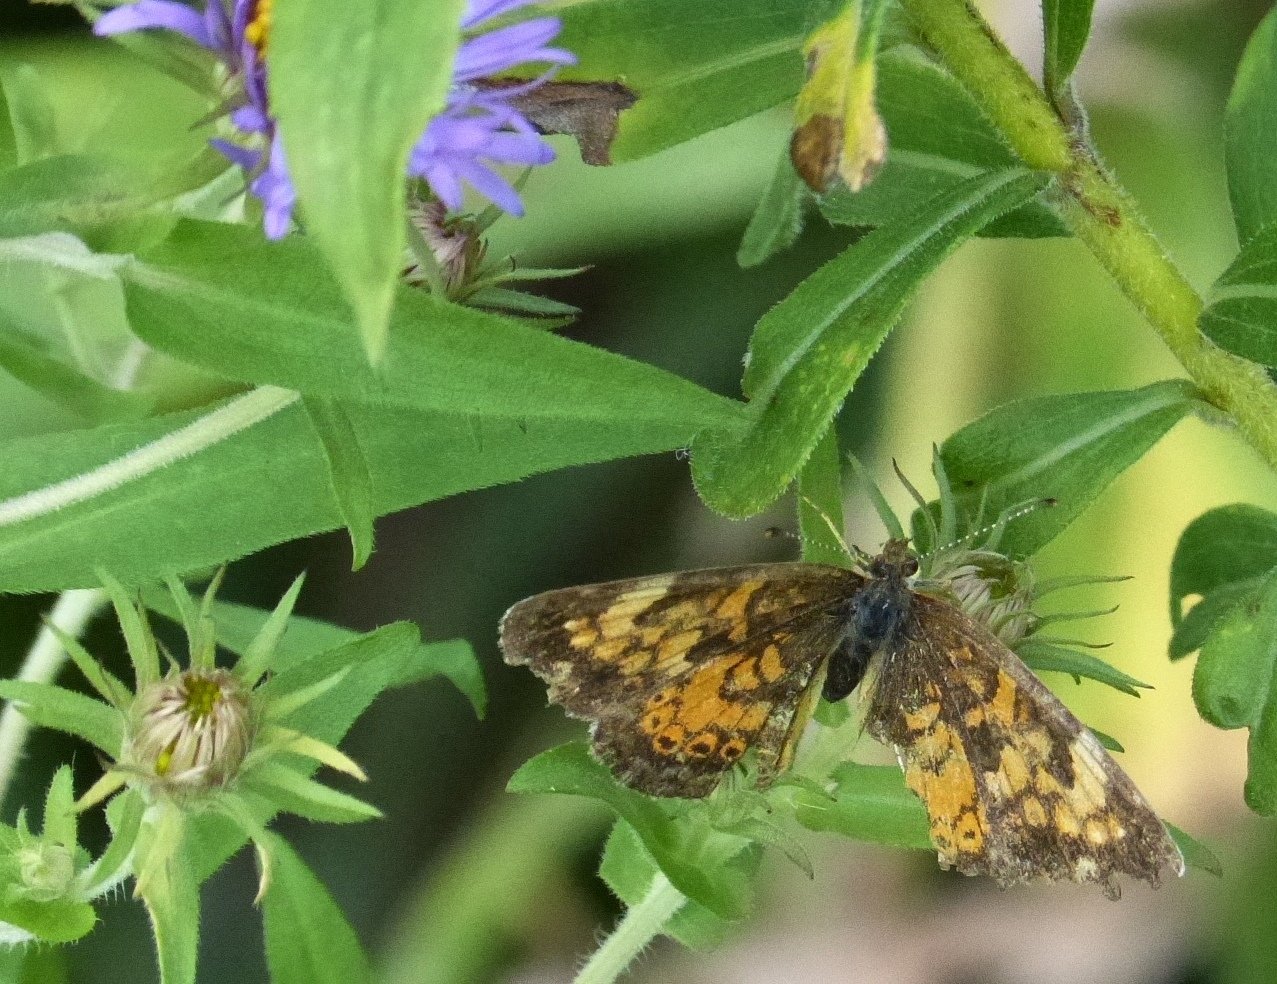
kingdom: Animalia
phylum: Arthropoda
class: Insecta
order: Lepidoptera
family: Nymphalidae
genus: Phyciodes
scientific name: Phyciodes tharos
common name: Pearl Crescent
